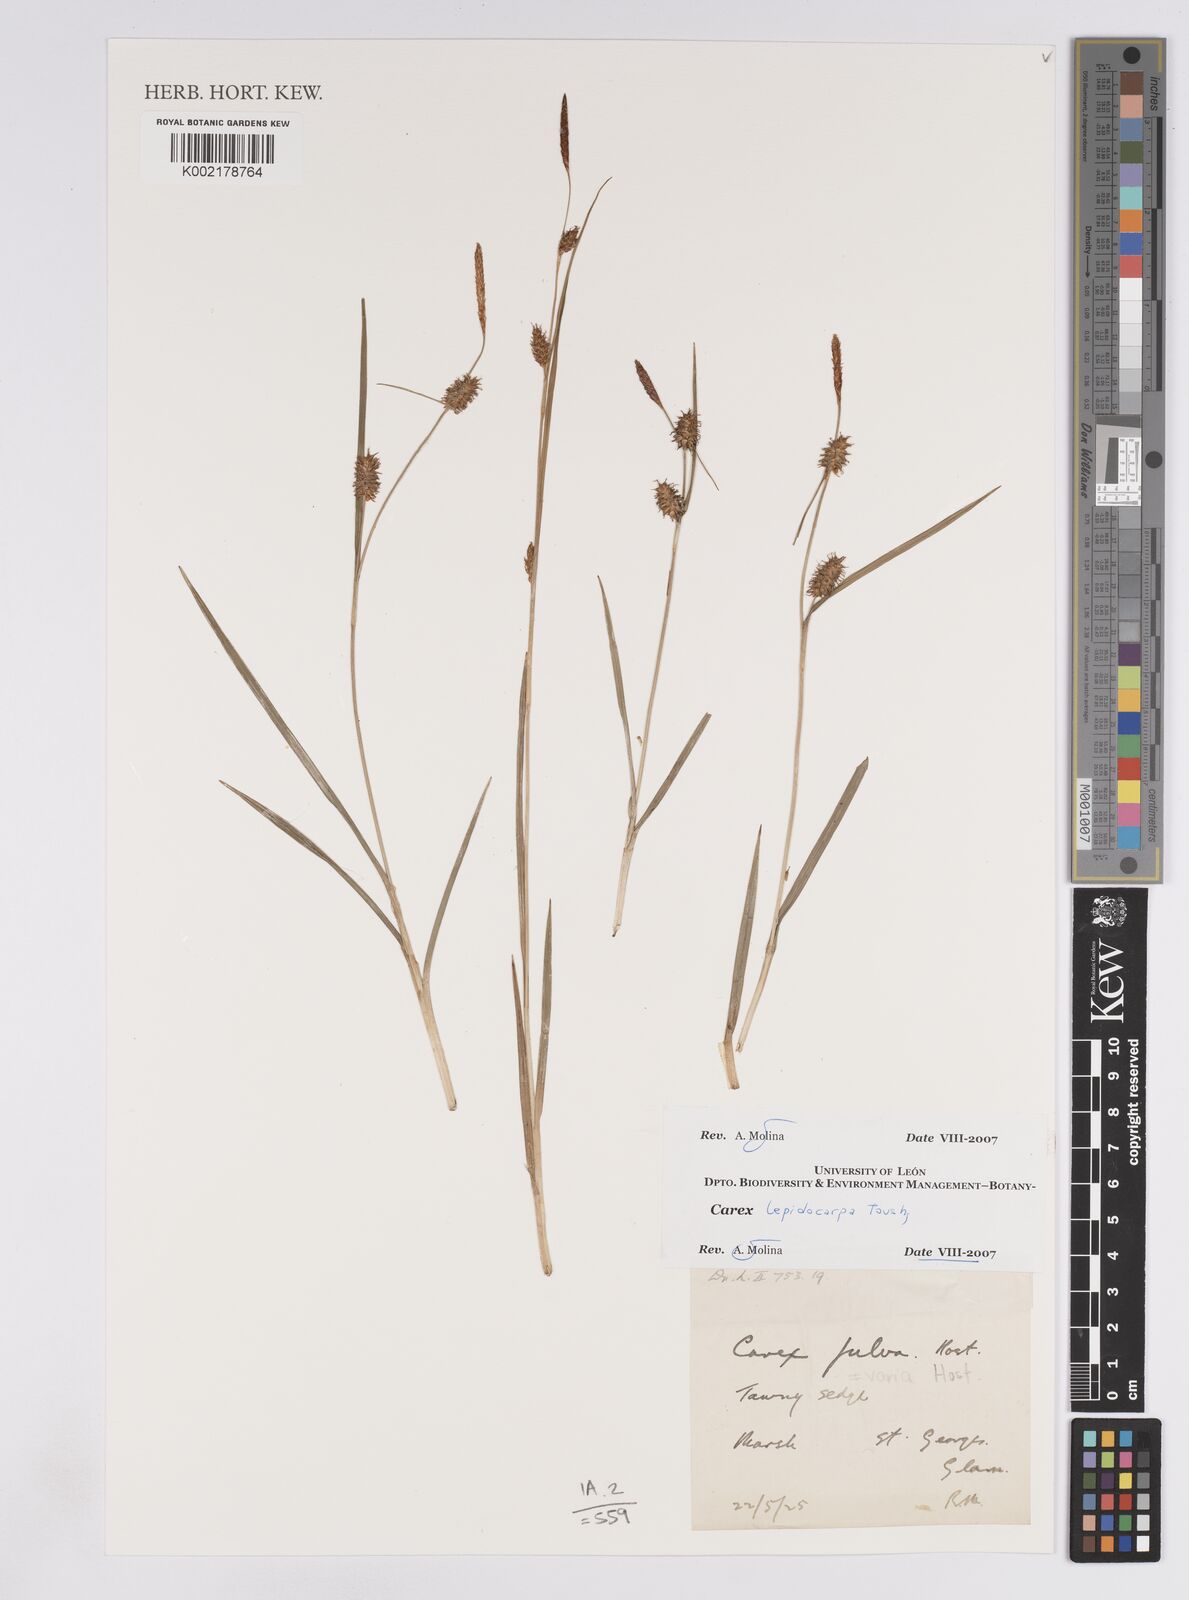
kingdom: Plantae
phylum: Tracheophyta
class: Liliopsida
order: Poales
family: Cyperaceae
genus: Carex
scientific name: Carex lepidocarpa
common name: Long-stalked yellow-sedge
